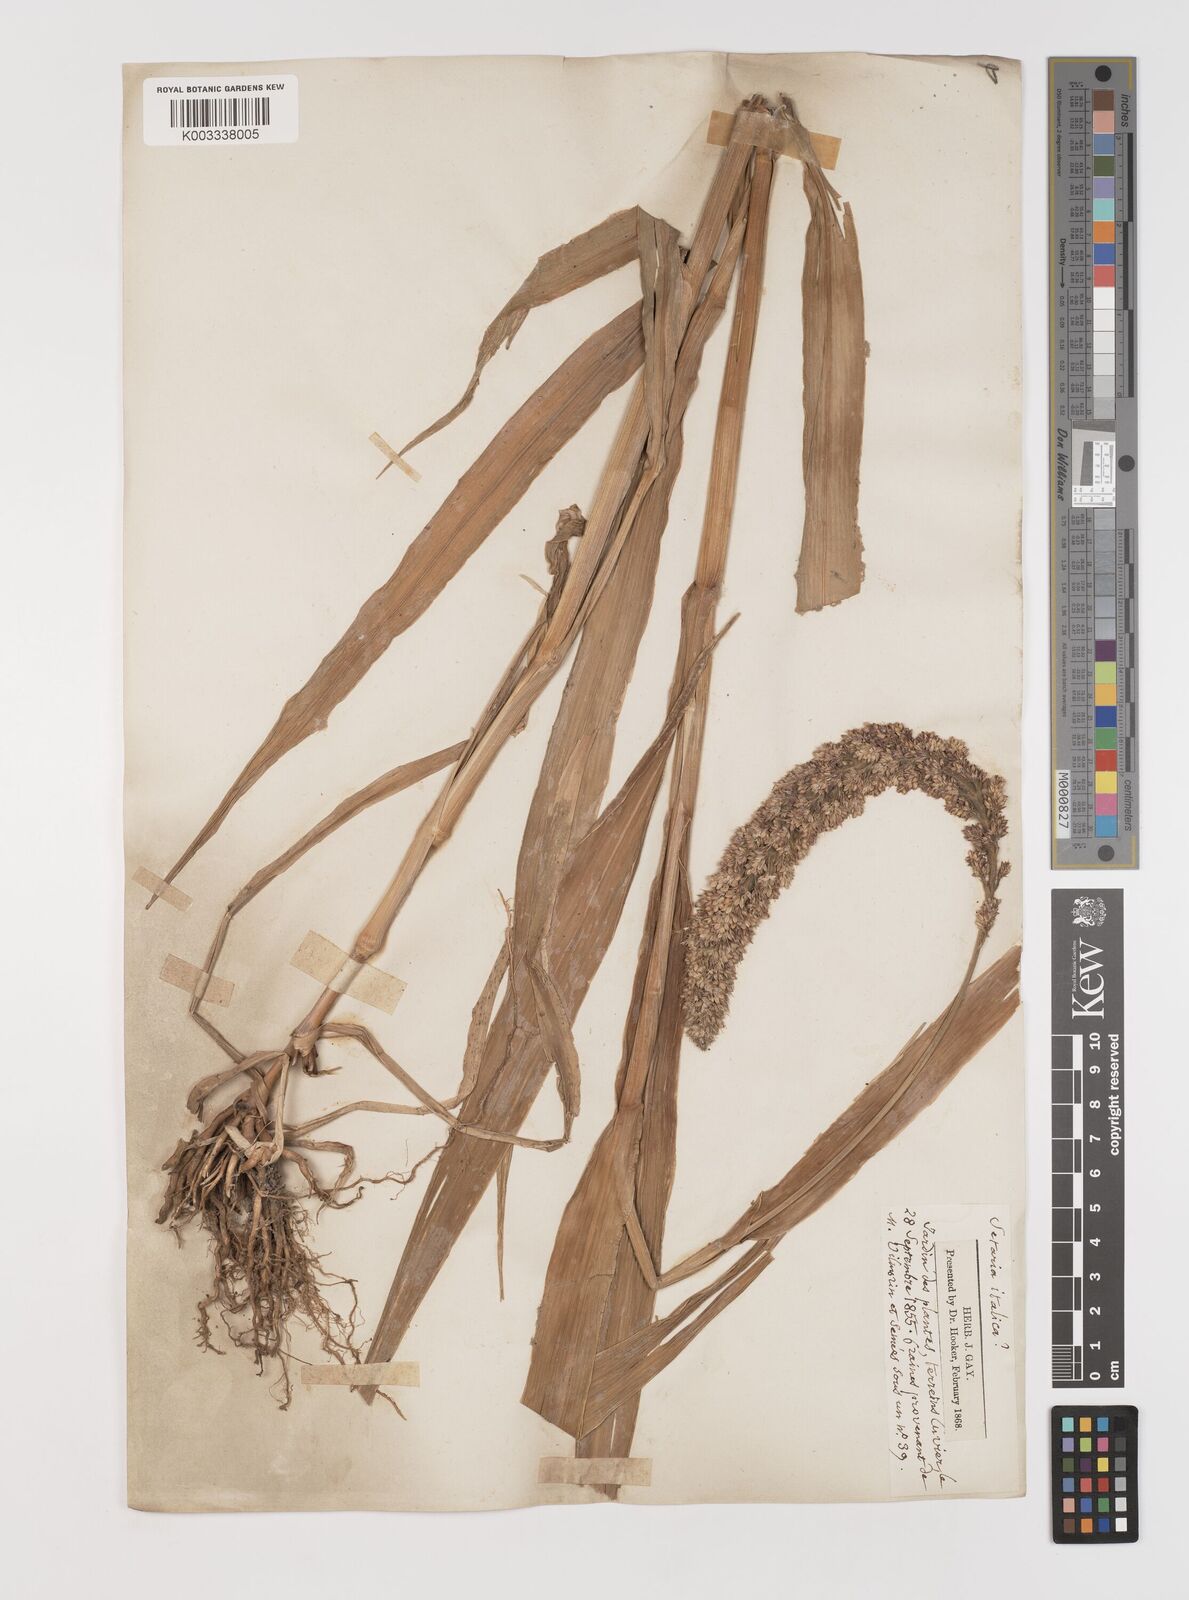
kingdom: Plantae
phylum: Tracheophyta
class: Liliopsida
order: Poales
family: Poaceae
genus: Setaria
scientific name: Setaria italica
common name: Foxtail bristle-grass
